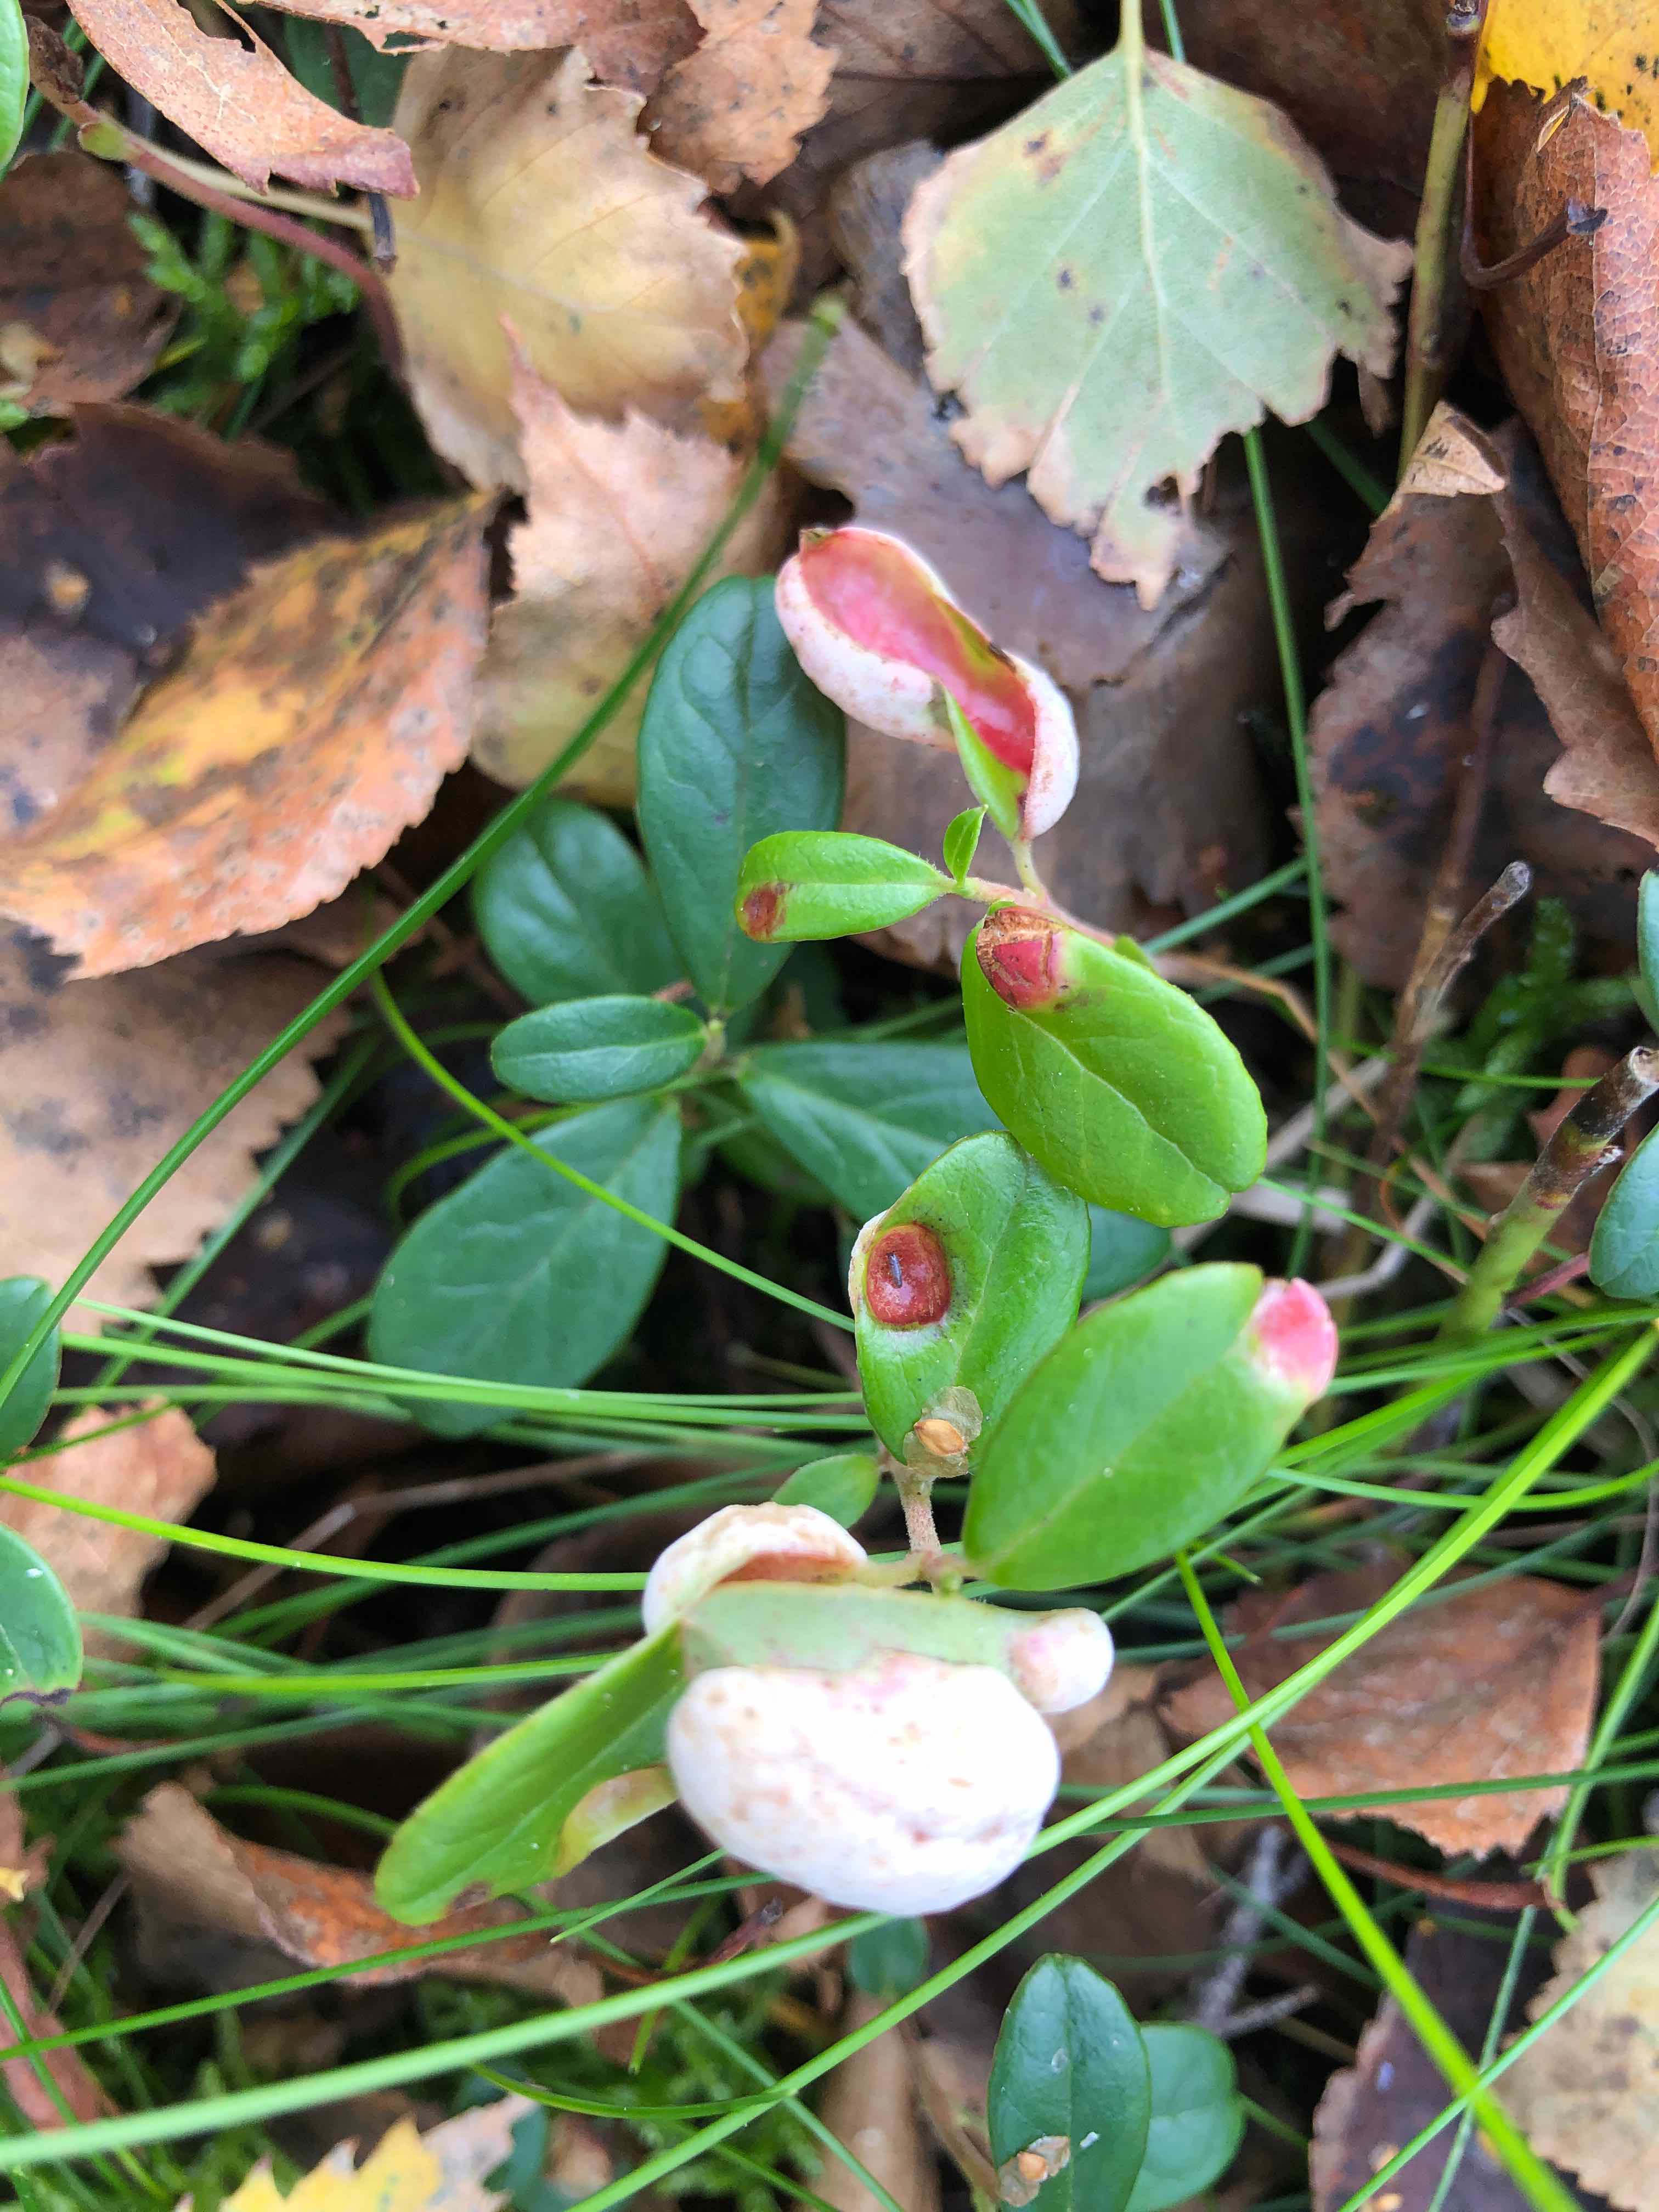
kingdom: Fungi
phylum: Basidiomycota
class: Exobasidiomycetes
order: Exobasidiales
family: Exobasidiaceae
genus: Exobasidium
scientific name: Exobasidium vaccinii
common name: tyttebærblad-bøllesvamp
